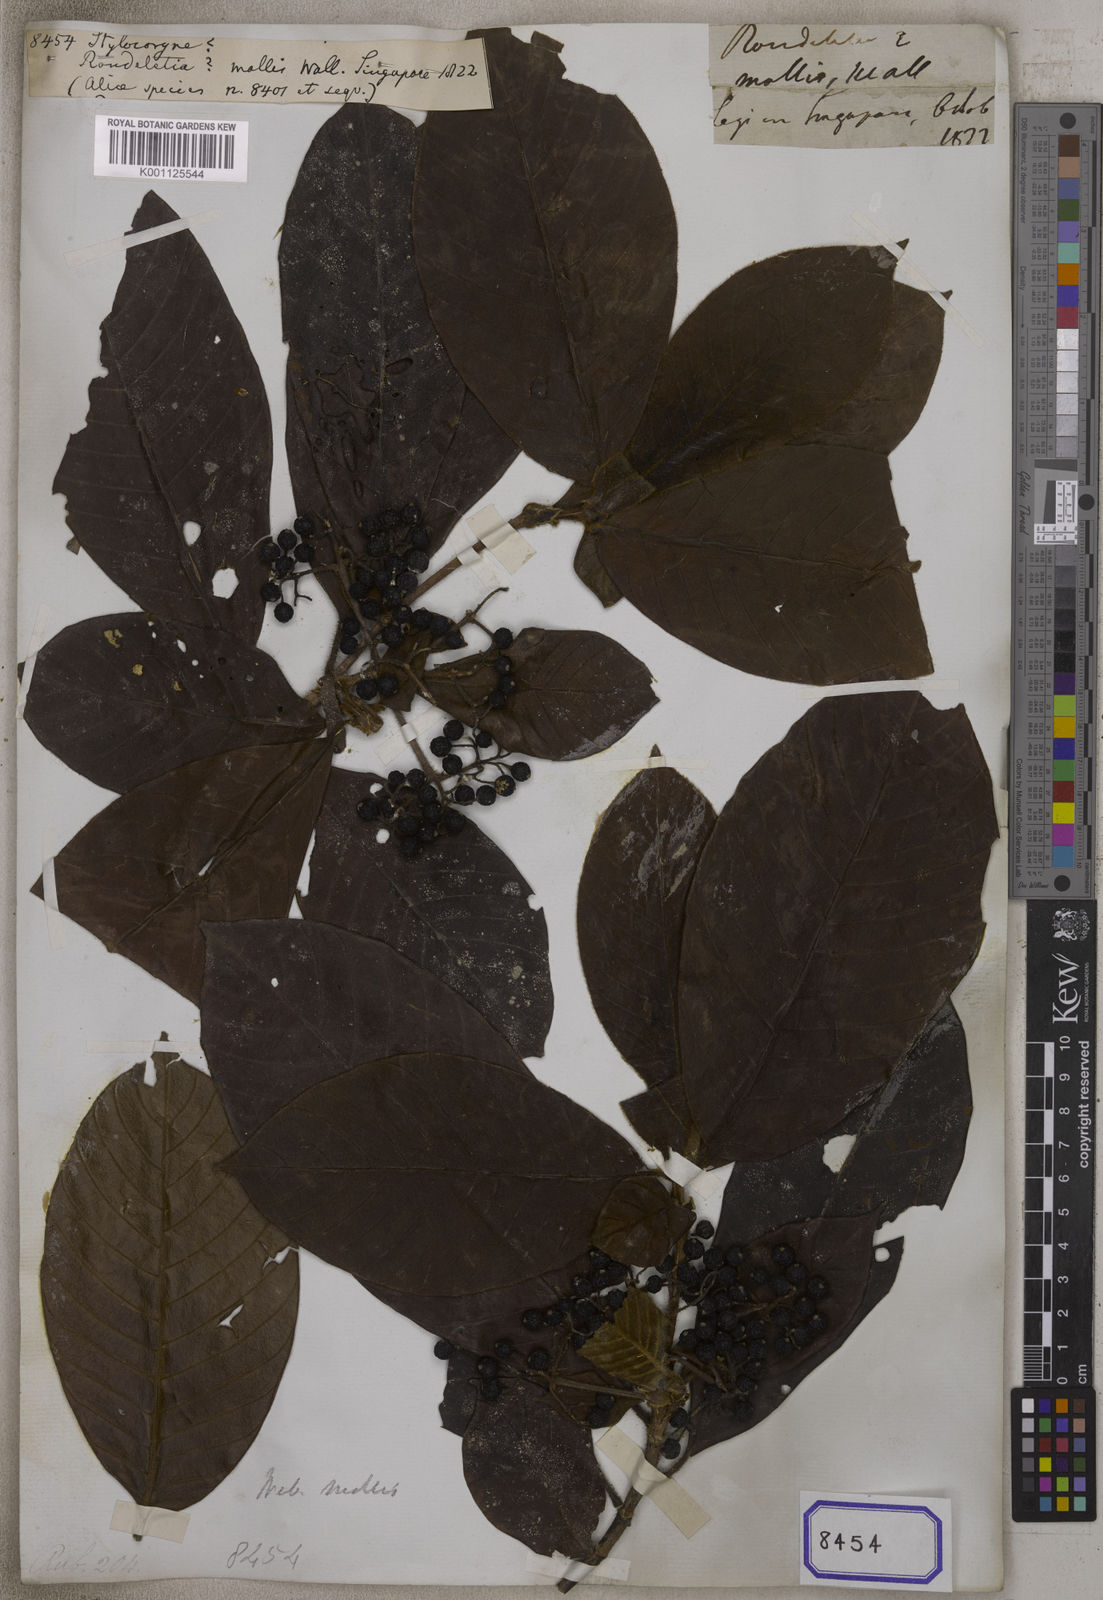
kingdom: Plantae
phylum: Tracheophyta
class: Magnoliopsida
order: Gentianales
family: Rubiaceae
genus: Aidia
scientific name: Aidia
